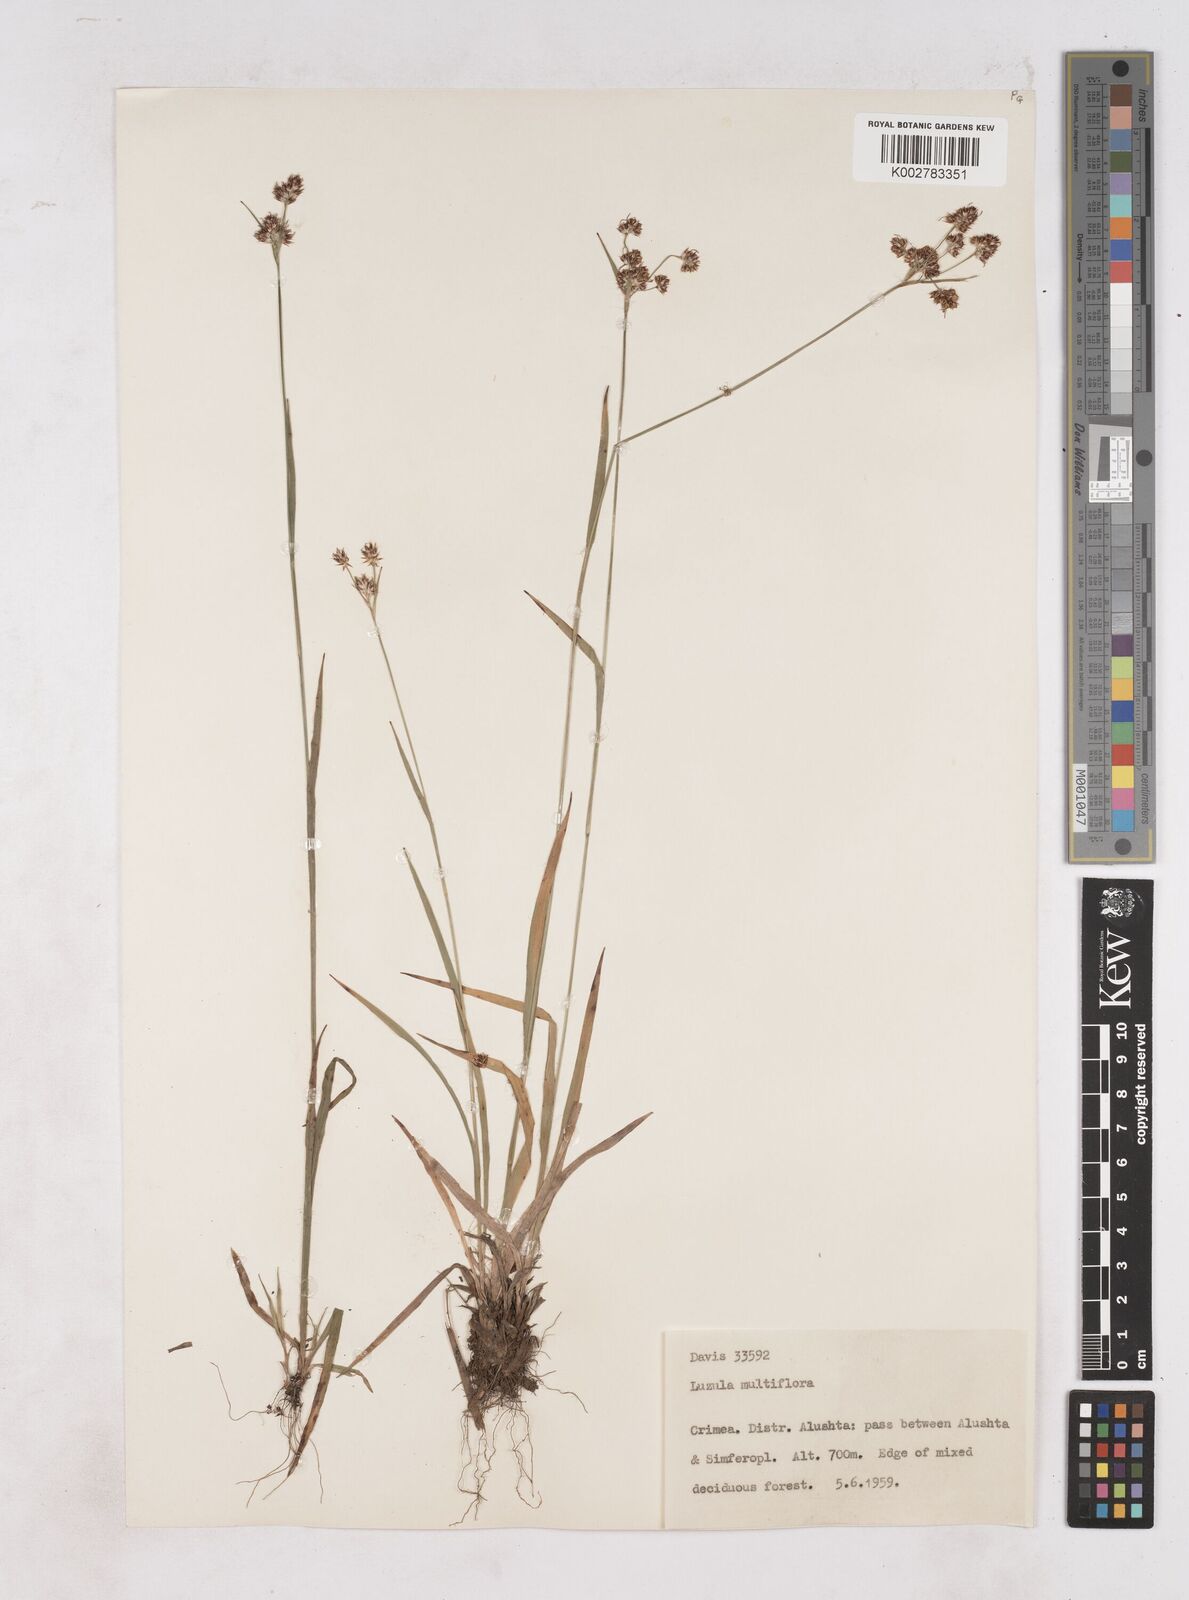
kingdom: Plantae
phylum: Tracheophyta
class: Liliopsida
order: Poales
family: Juncaceae
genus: Luzula
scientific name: Luzula multiflora
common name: Heath wood-rush
